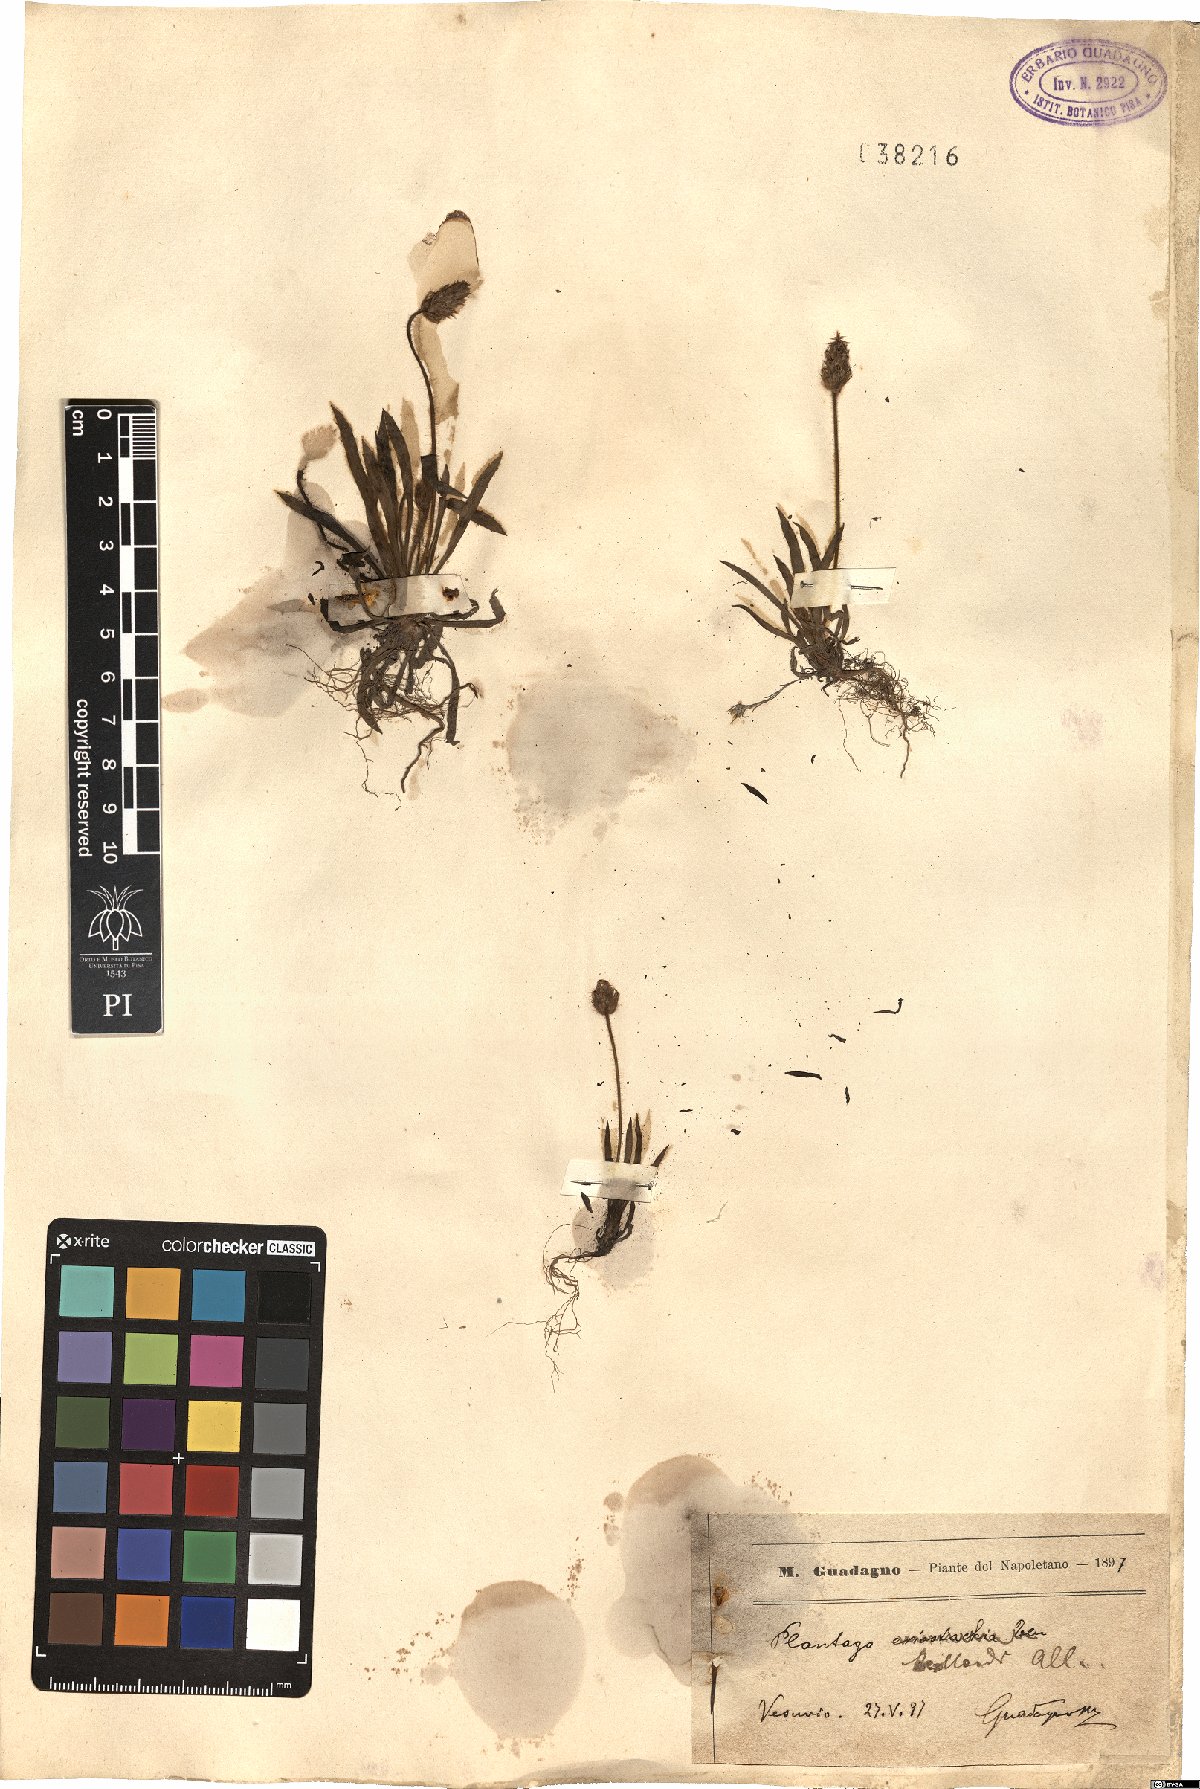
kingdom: Plantae
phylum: Tracheophyta
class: Magnoliopsida
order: Lamiales
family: Plantaginaceae
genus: Plantago
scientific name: Plantago bellardii
